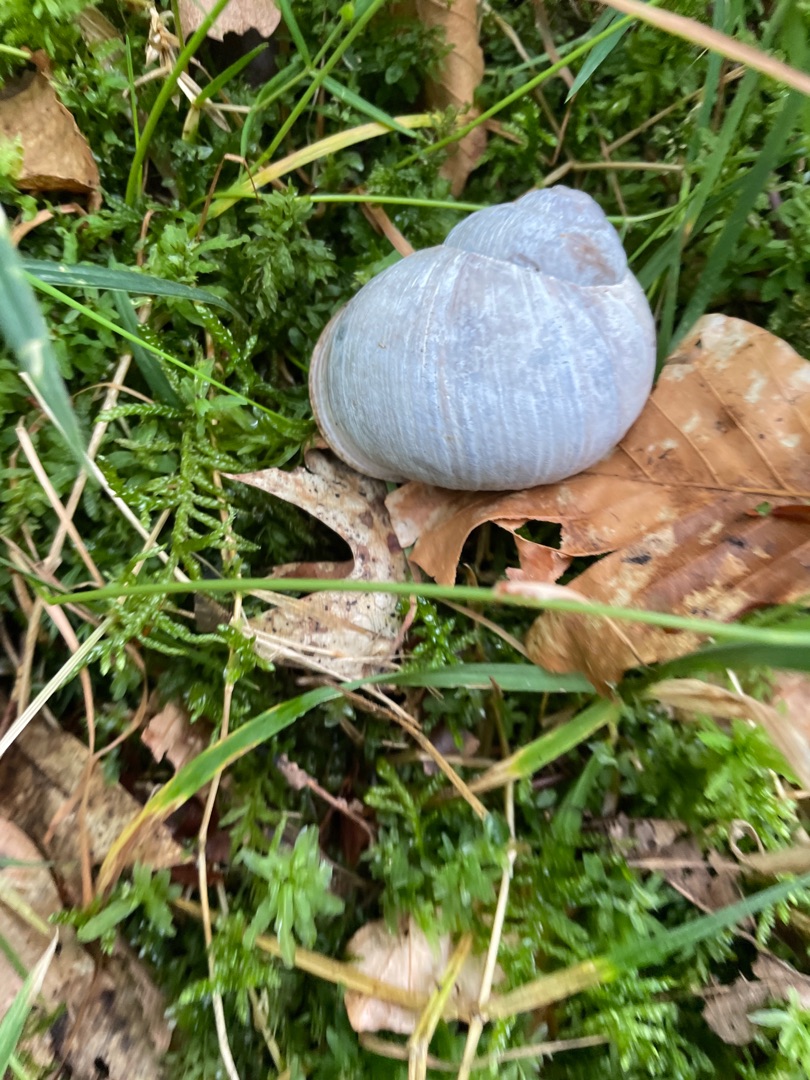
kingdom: Animalia
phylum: Mollusca
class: Gastropoda
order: Stylommatophora
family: Helicidae
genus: Helix
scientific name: Helix pomatia
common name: Vinbjergsnegl
